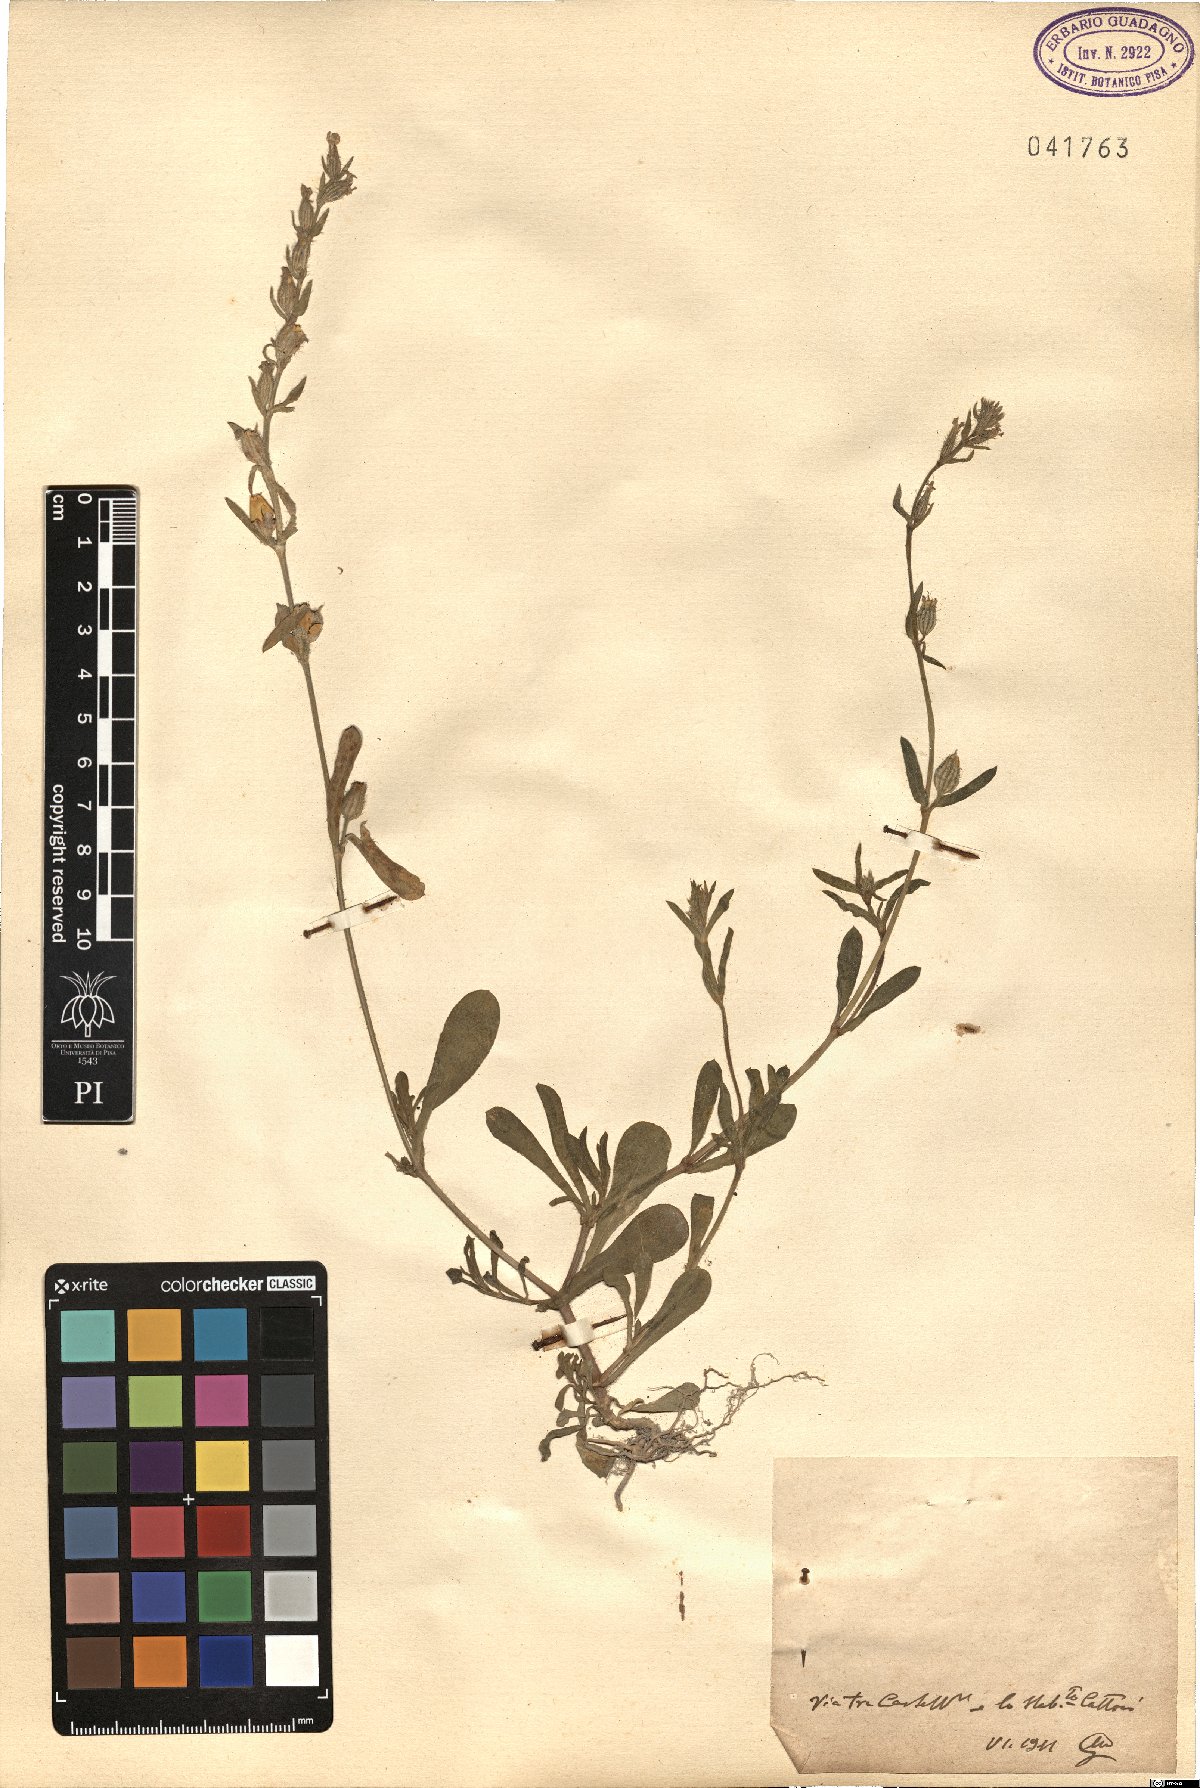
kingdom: Plantae
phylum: Tracheophyta
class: Magnoliopsida
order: Caryophyllales
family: Caryophyllaceae
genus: Silene
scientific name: Silene
